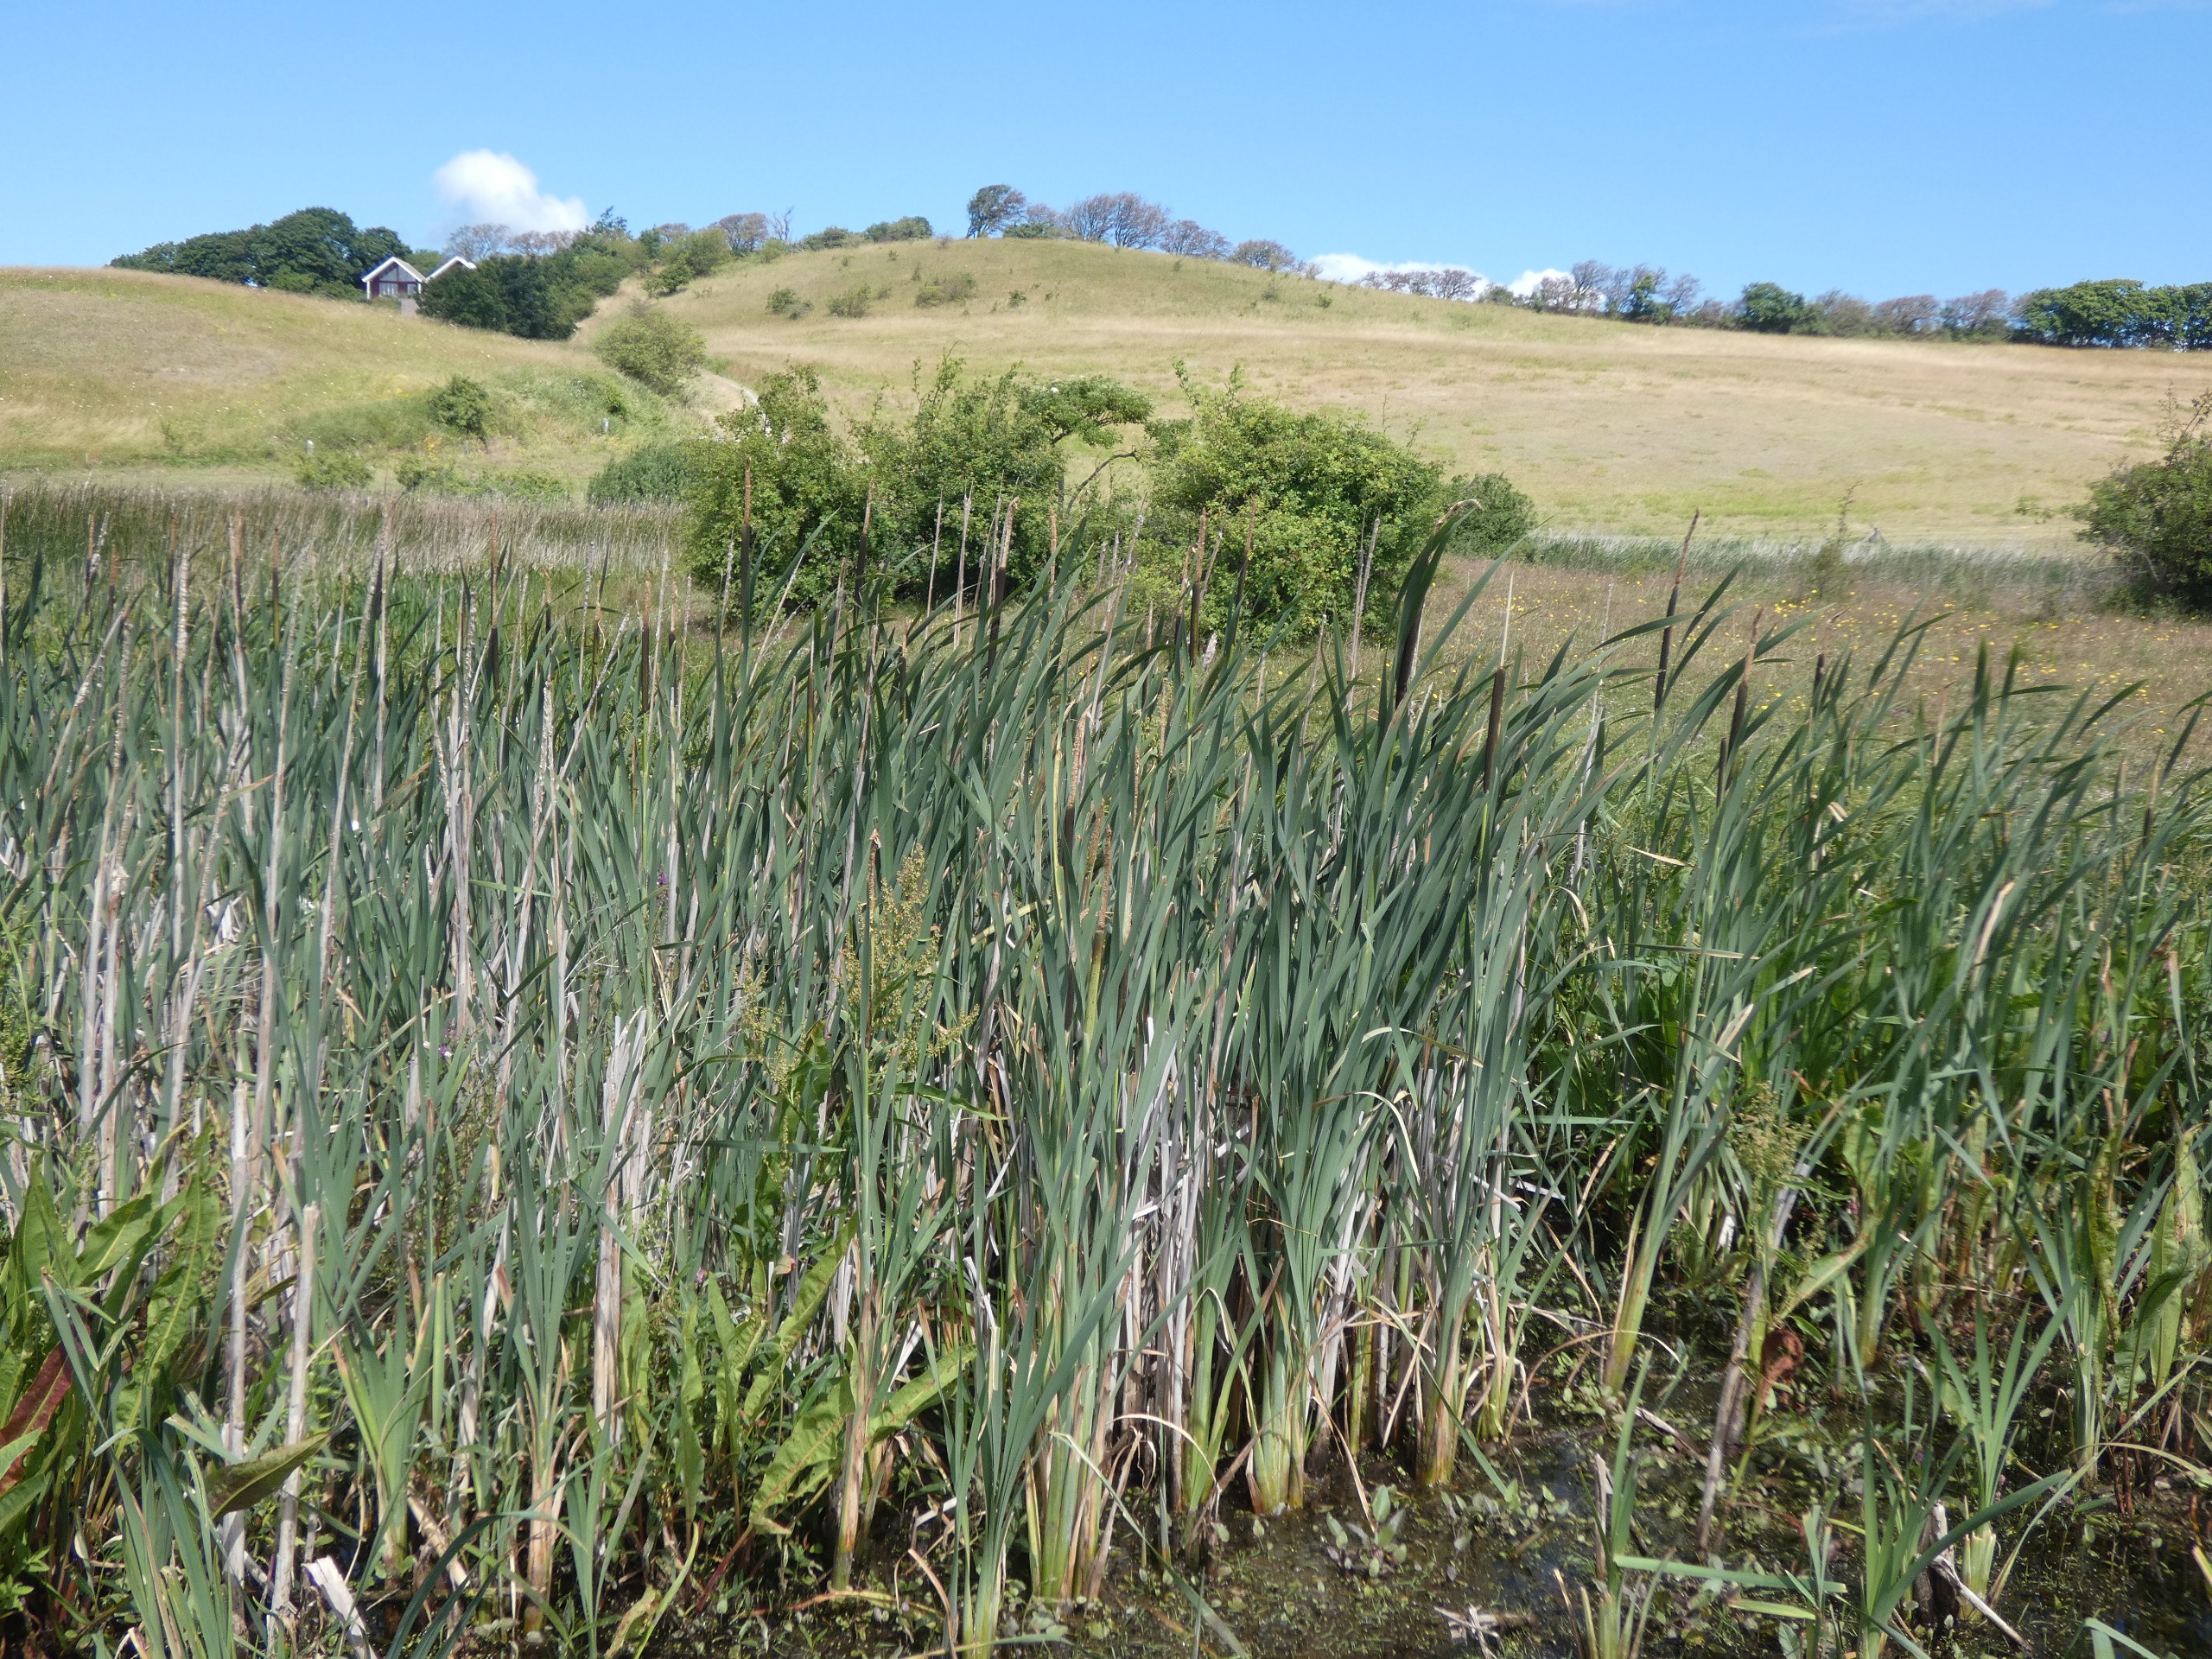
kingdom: Plantae
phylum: Tracheophyta
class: Liliopsida
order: Poales
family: Typhaceae
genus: Typha
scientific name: Typha latifolia
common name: Bredbladet dunhammer
